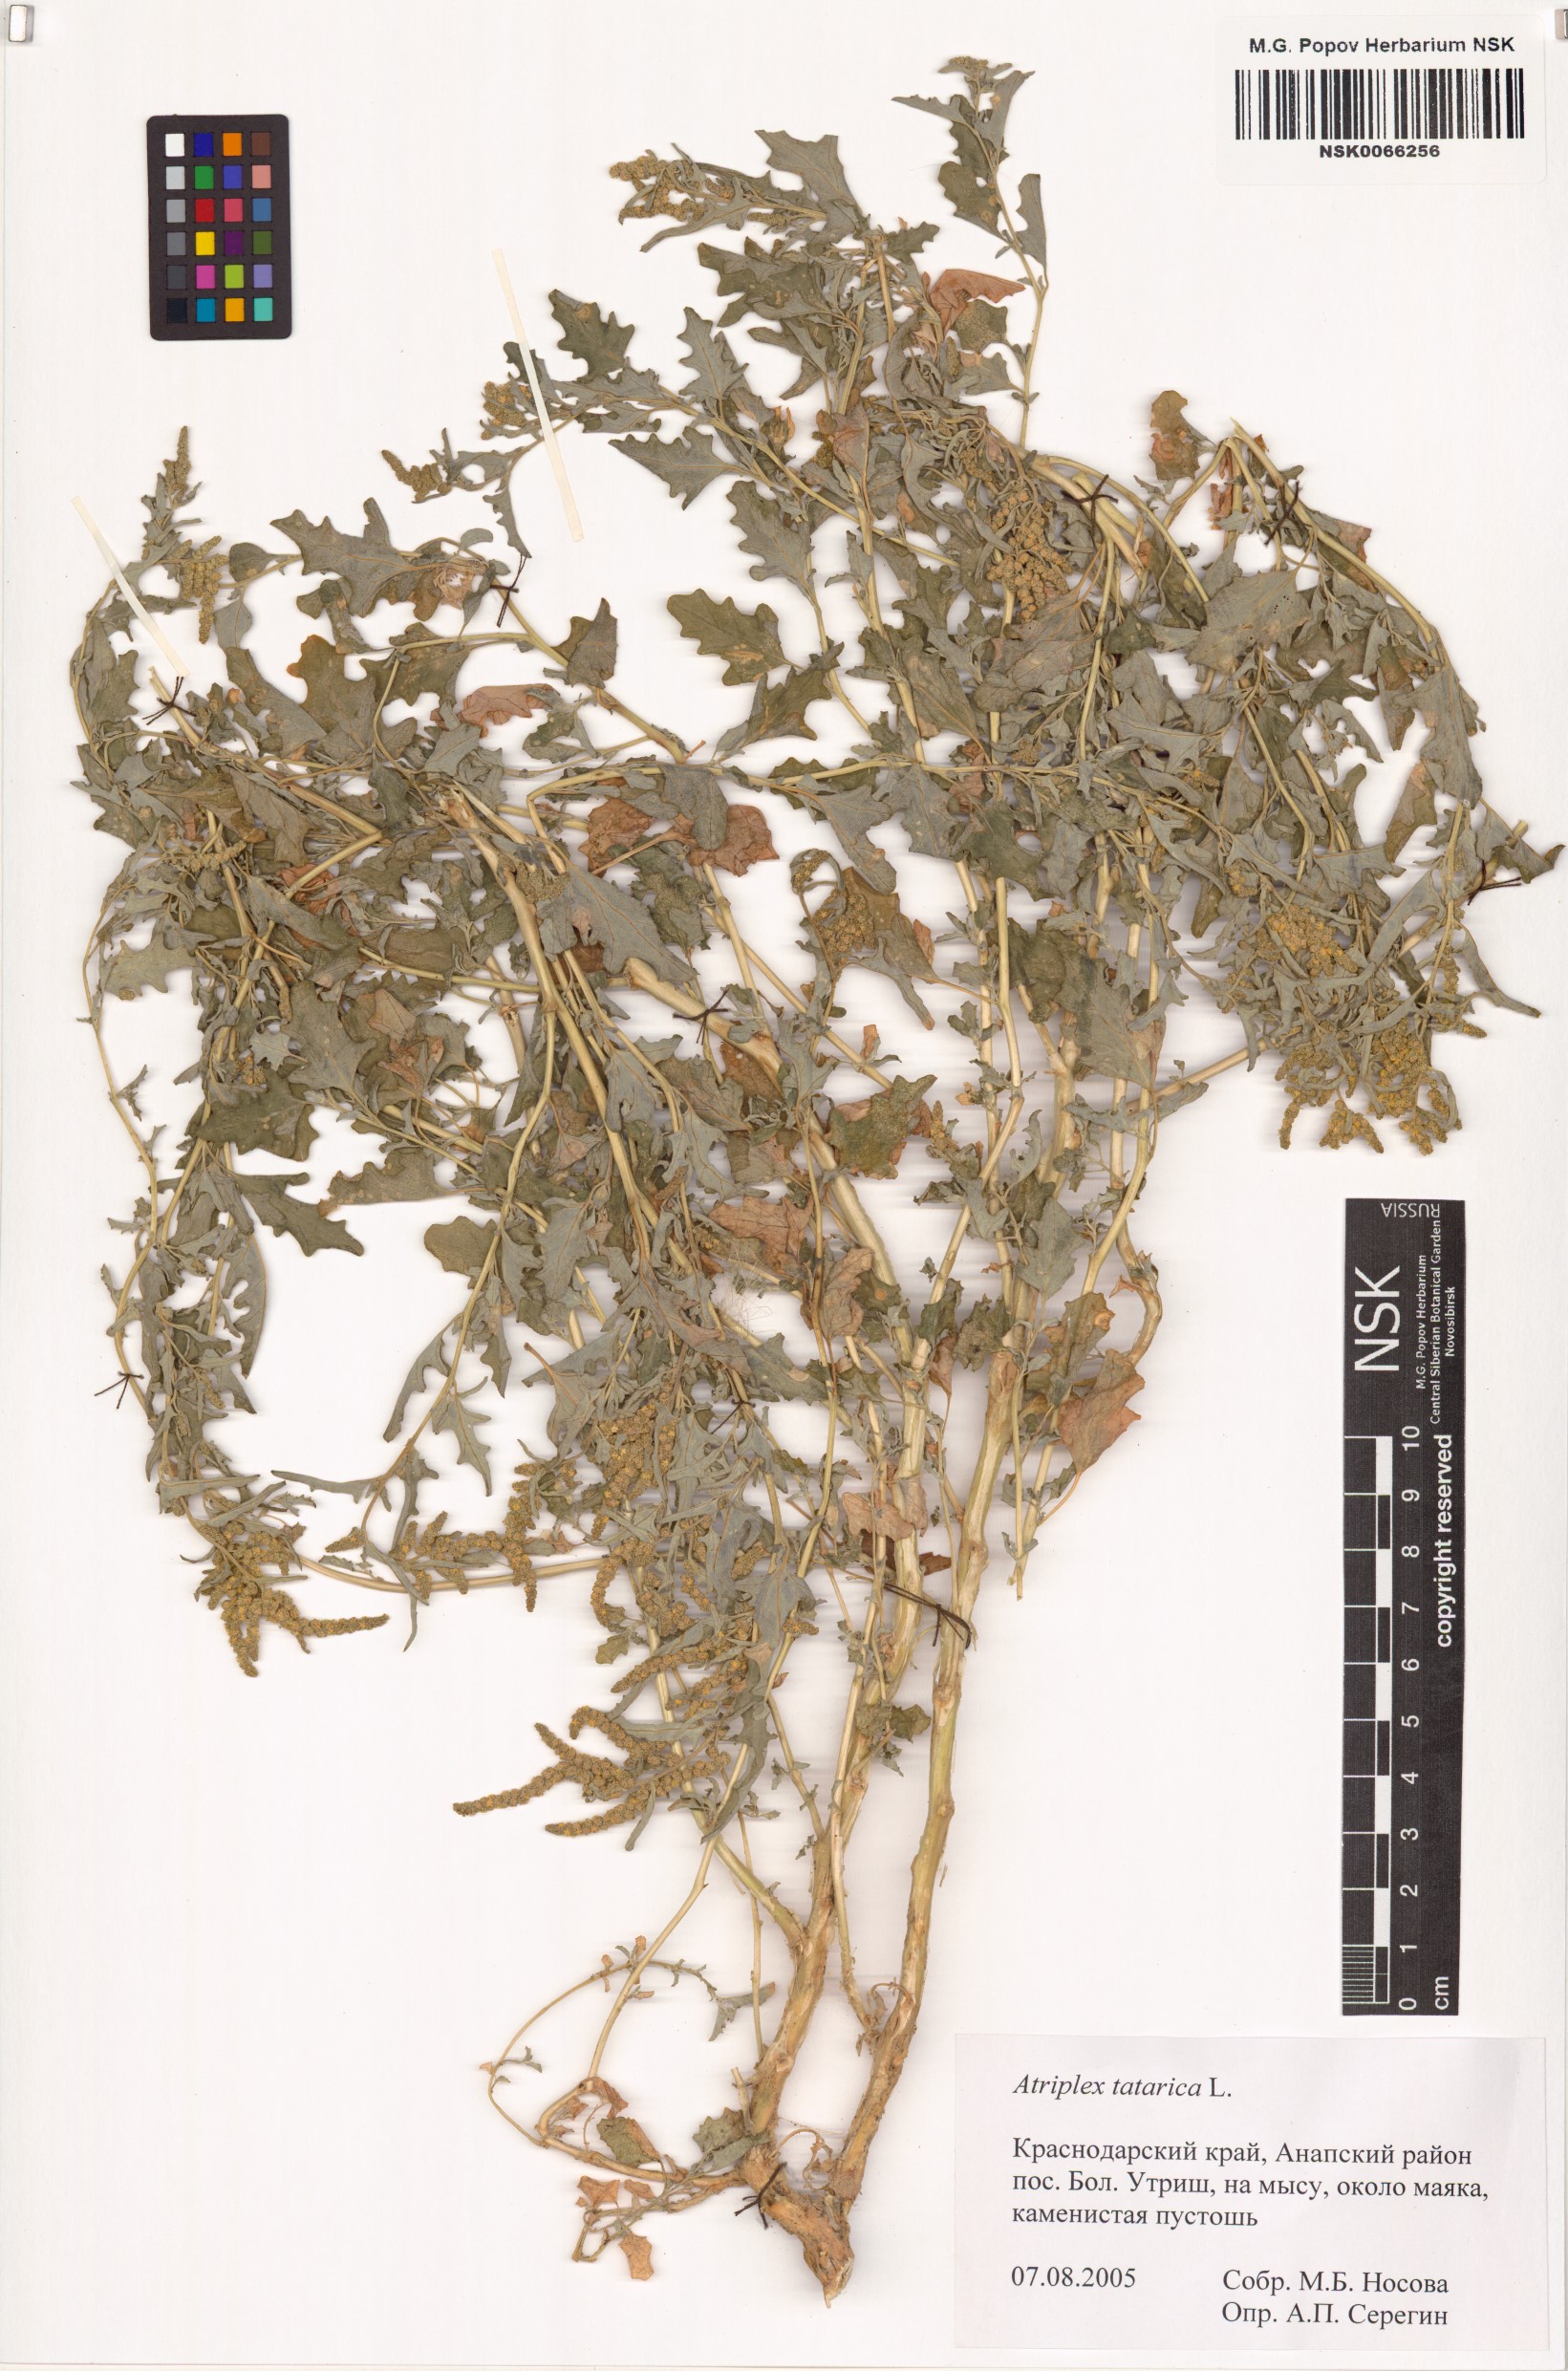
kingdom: Plantae
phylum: Tracheophyta
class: Magnoliopsida
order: Caryophyllales
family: Amaranthaceae
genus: Atriplex
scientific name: Atriplex tatarica
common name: Tatarian orache
